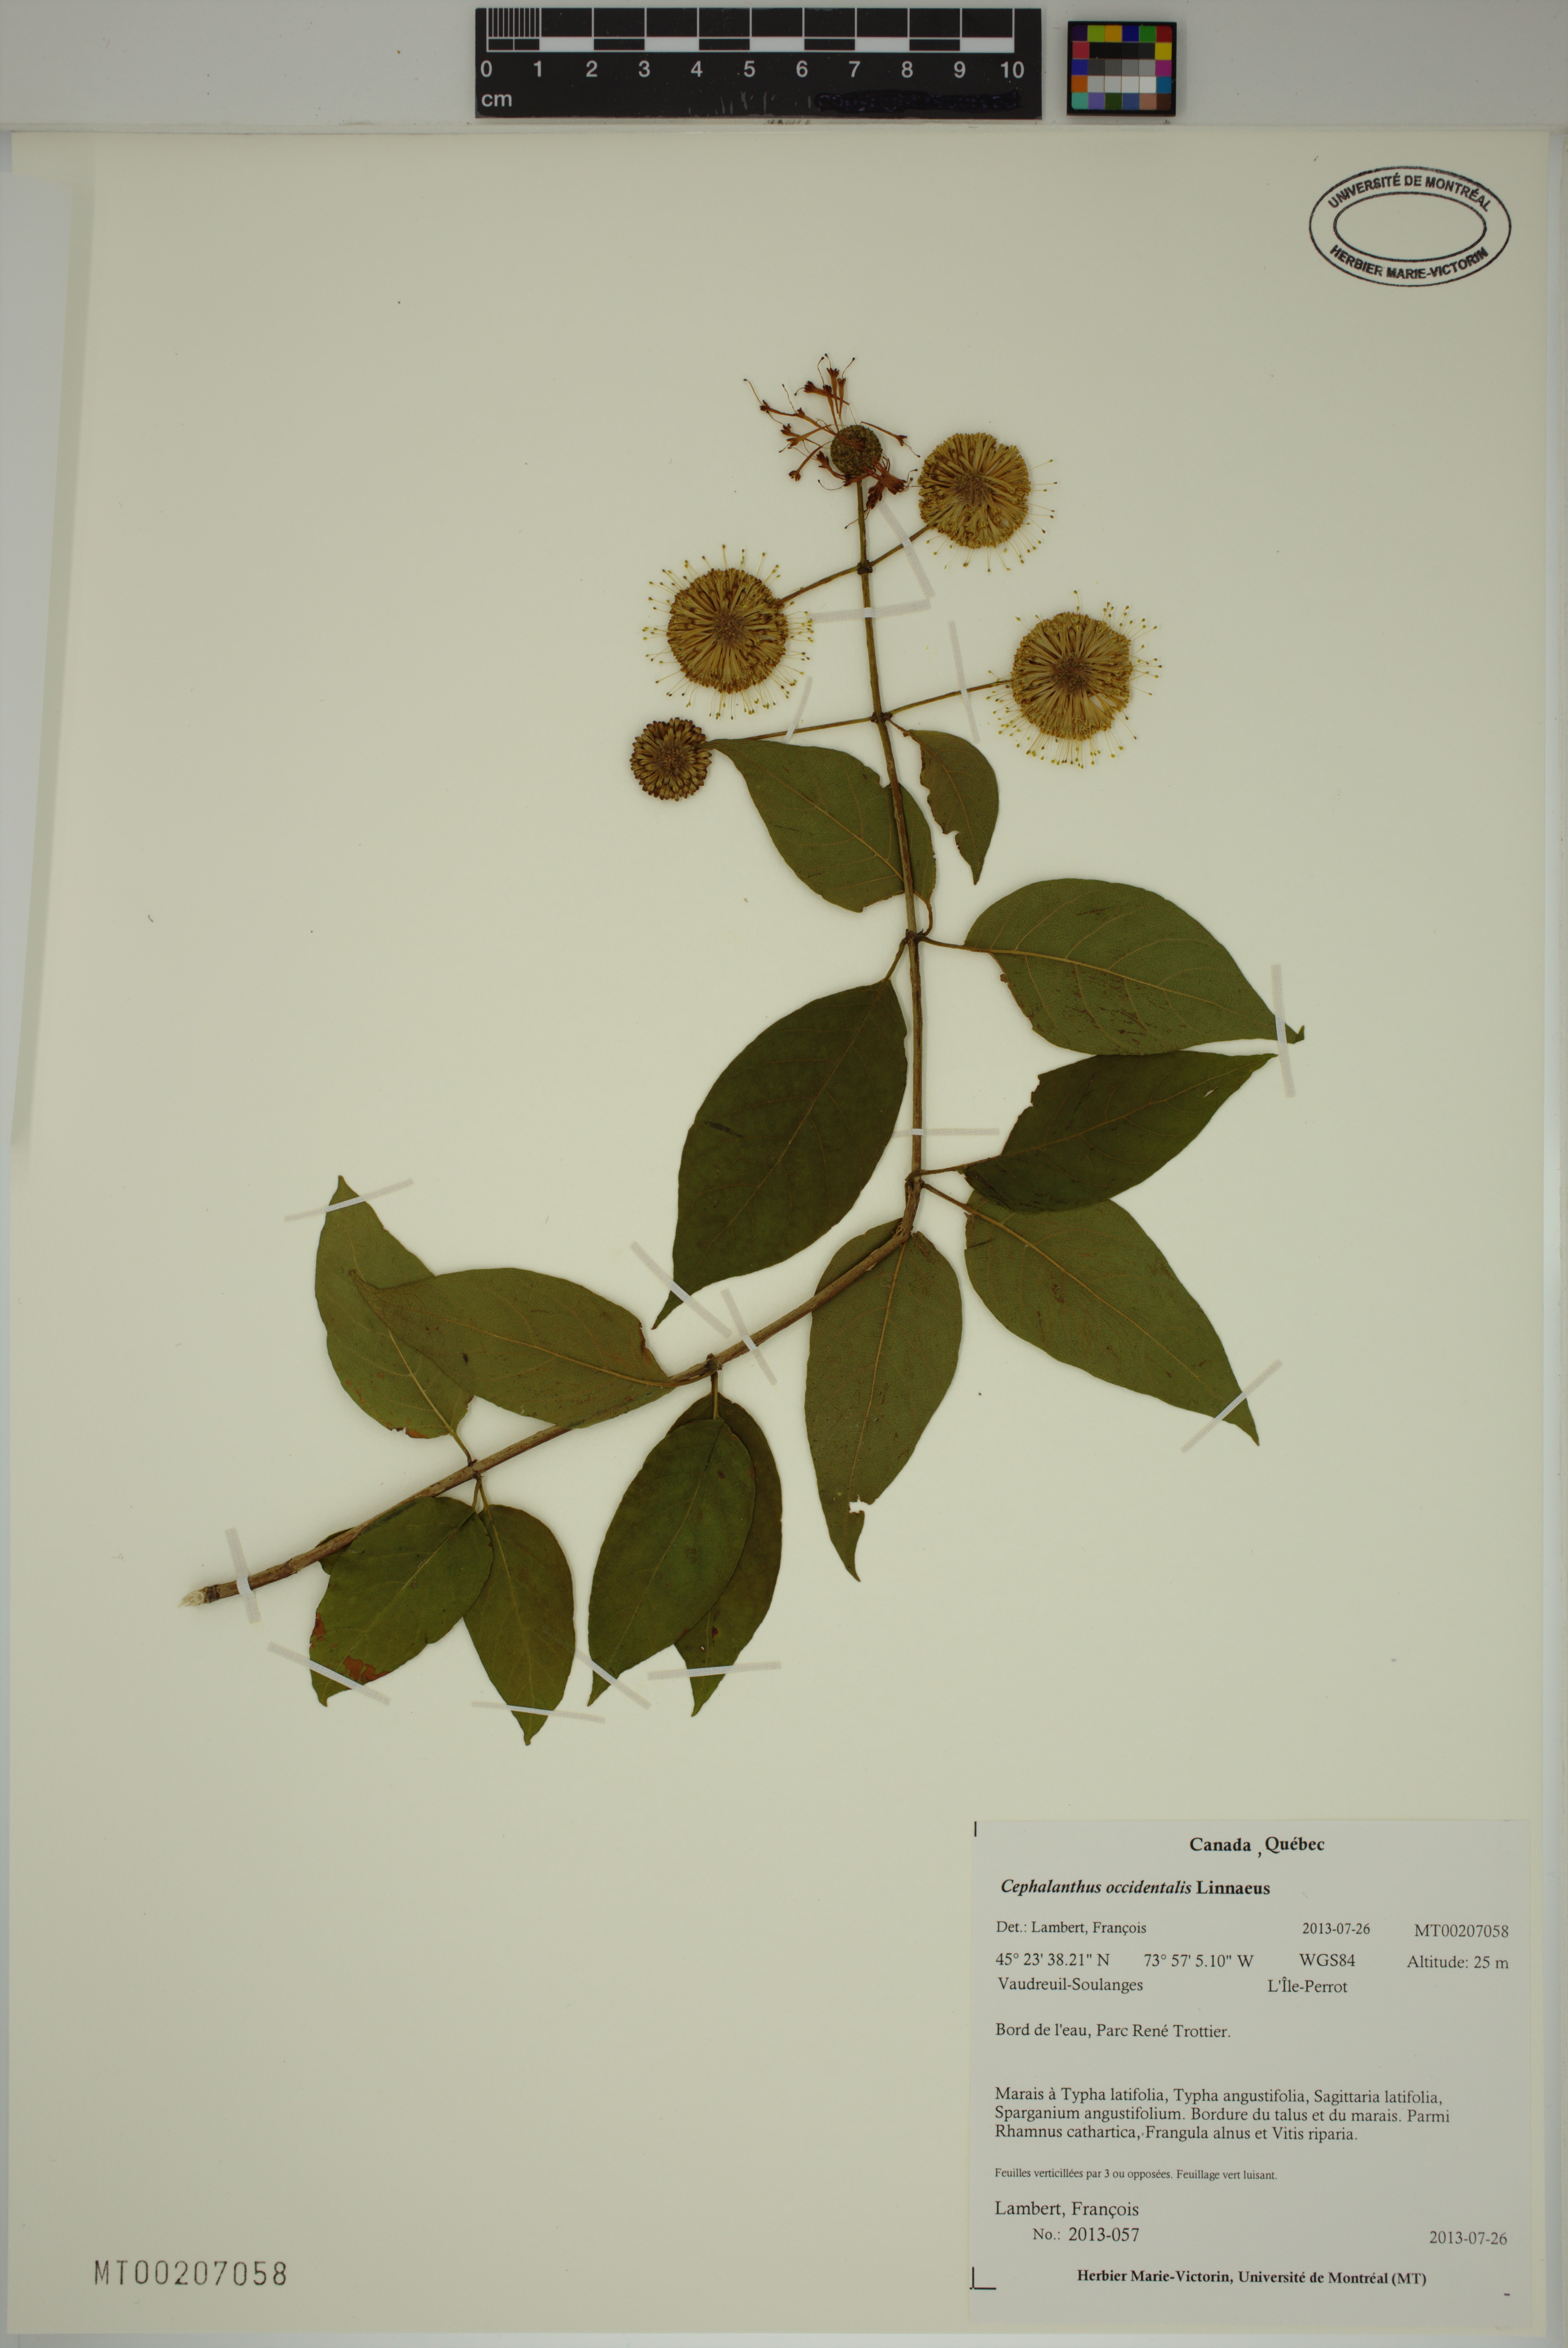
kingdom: Plantae
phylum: Tracheophyta
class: Magnoliopsida
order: Gentianales
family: Rubiaceae
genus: Cephalanthus
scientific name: Cephalanthus occidentalis
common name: Button-willow
